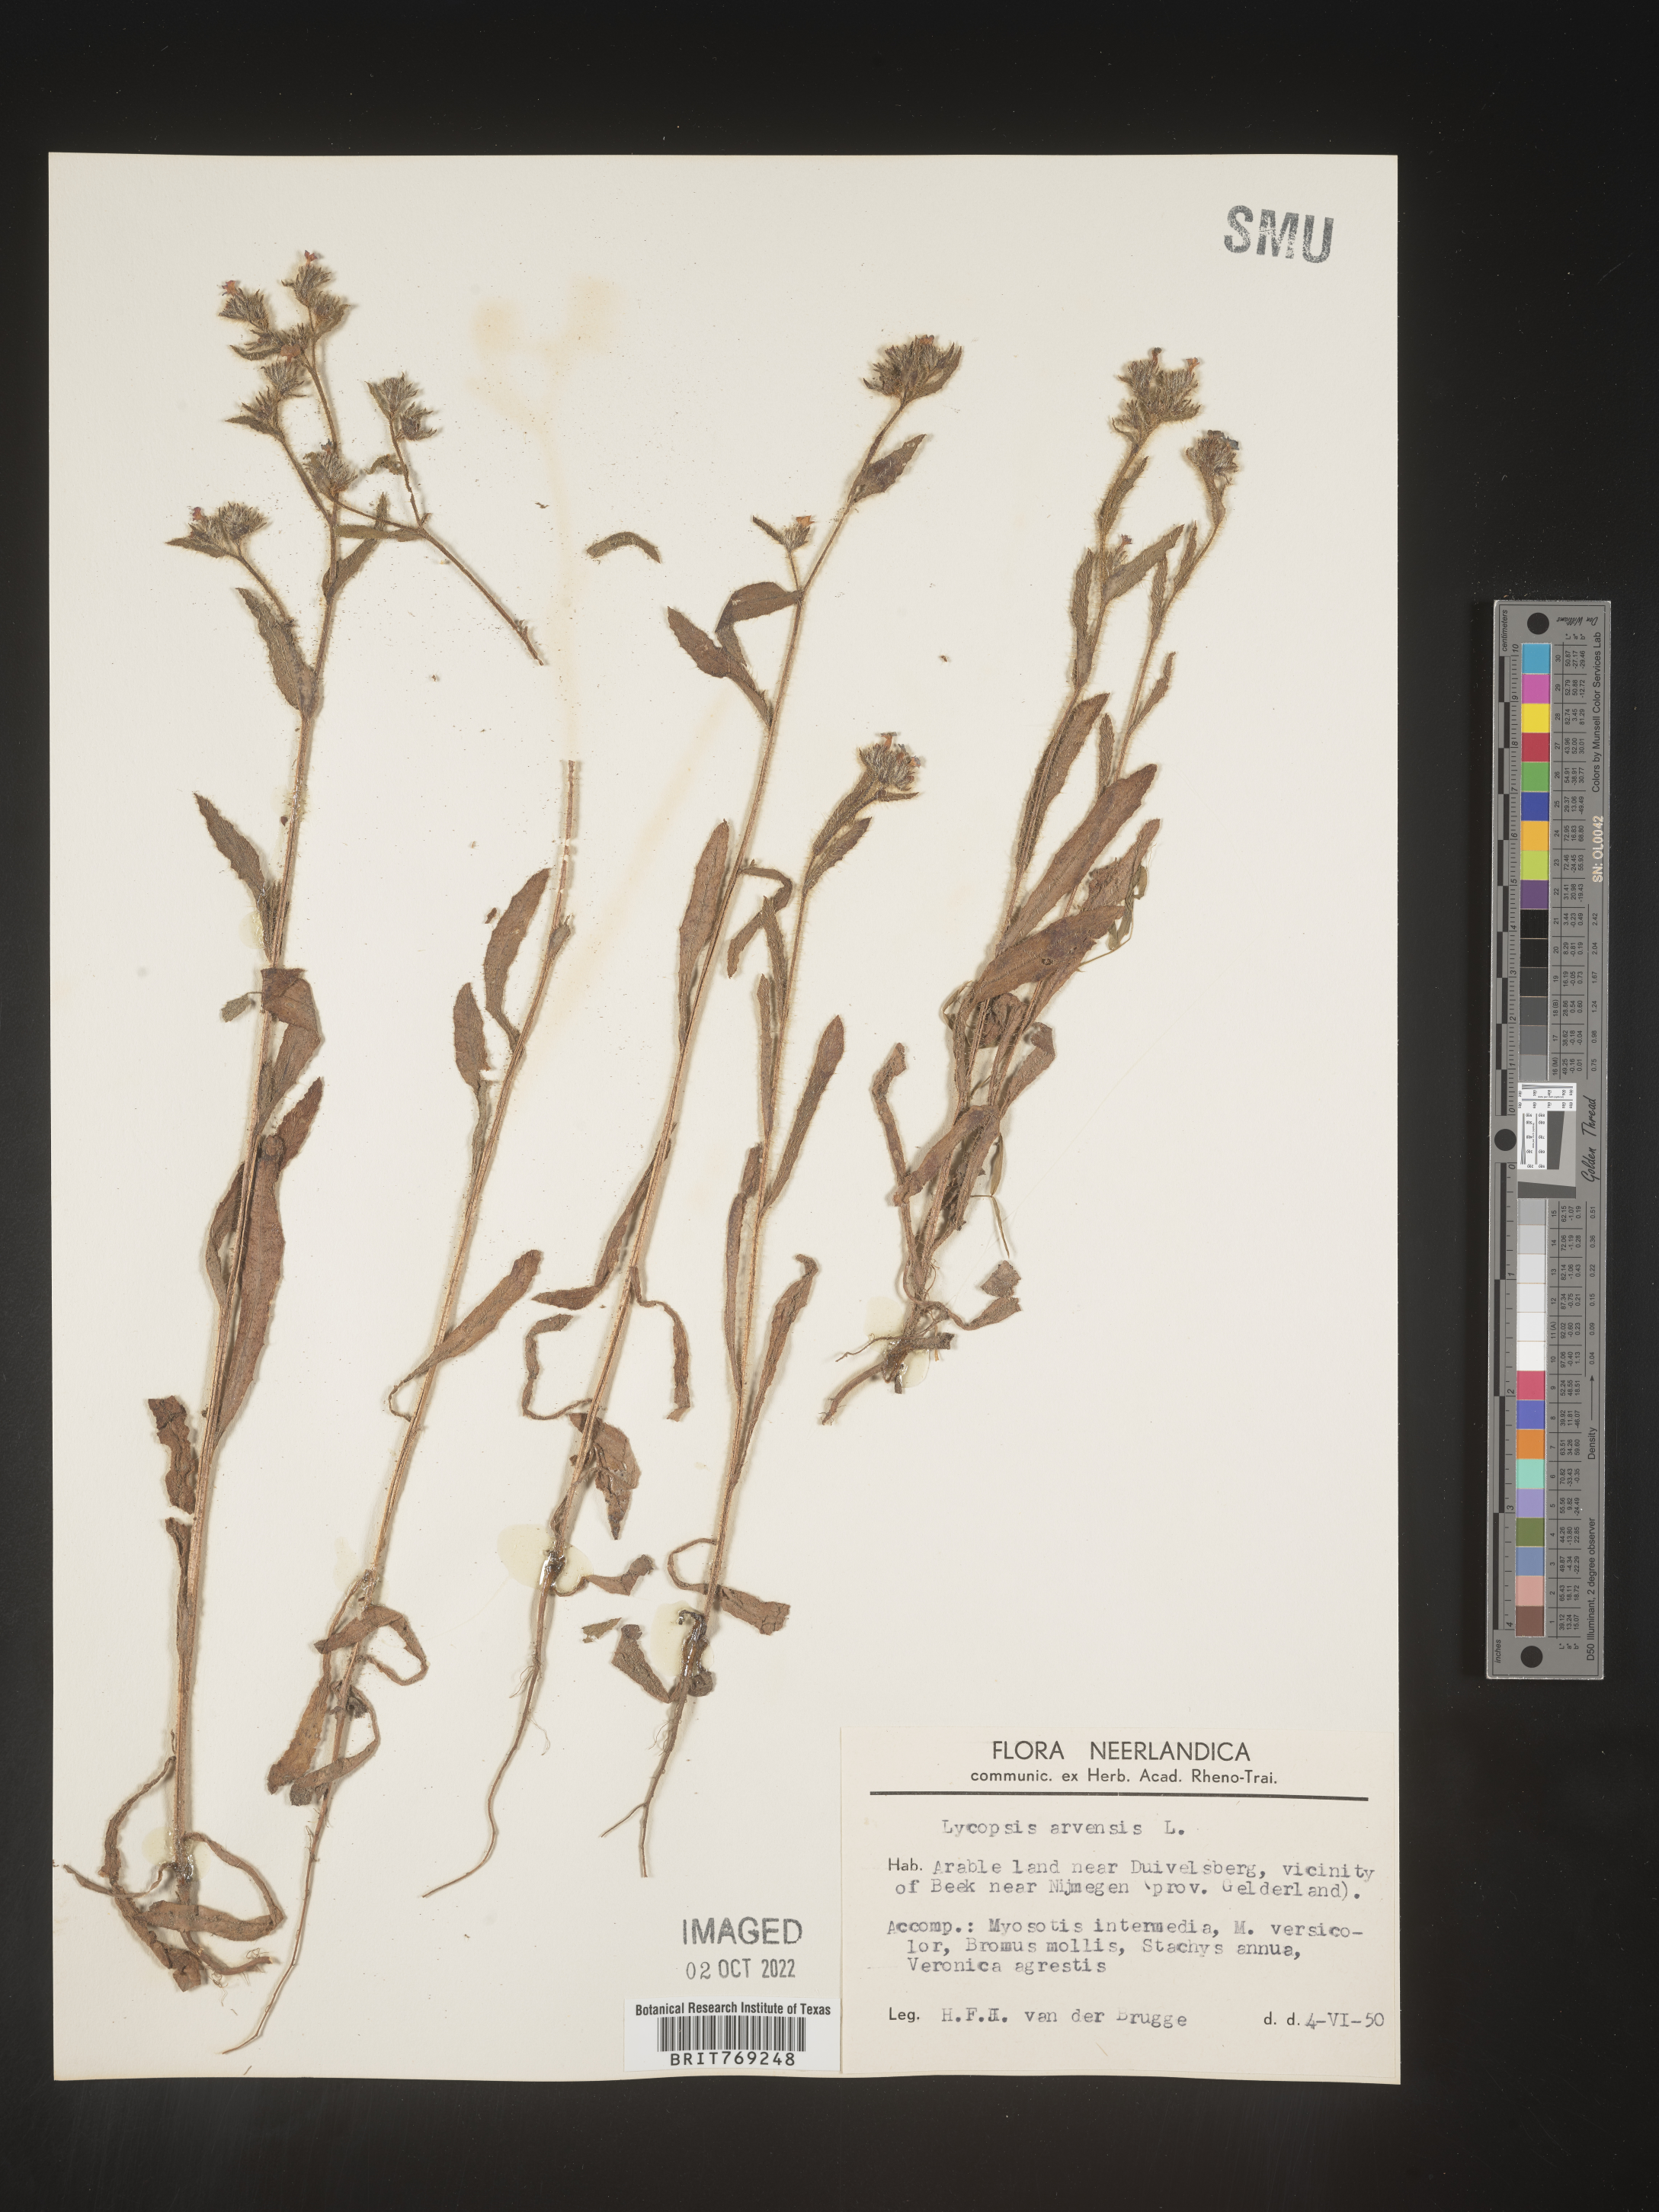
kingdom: Plantae
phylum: Tracheophyta
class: Magnoliopsida
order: Boraginales
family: Boraginaceae
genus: Lycopsis
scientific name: Lycopsis
